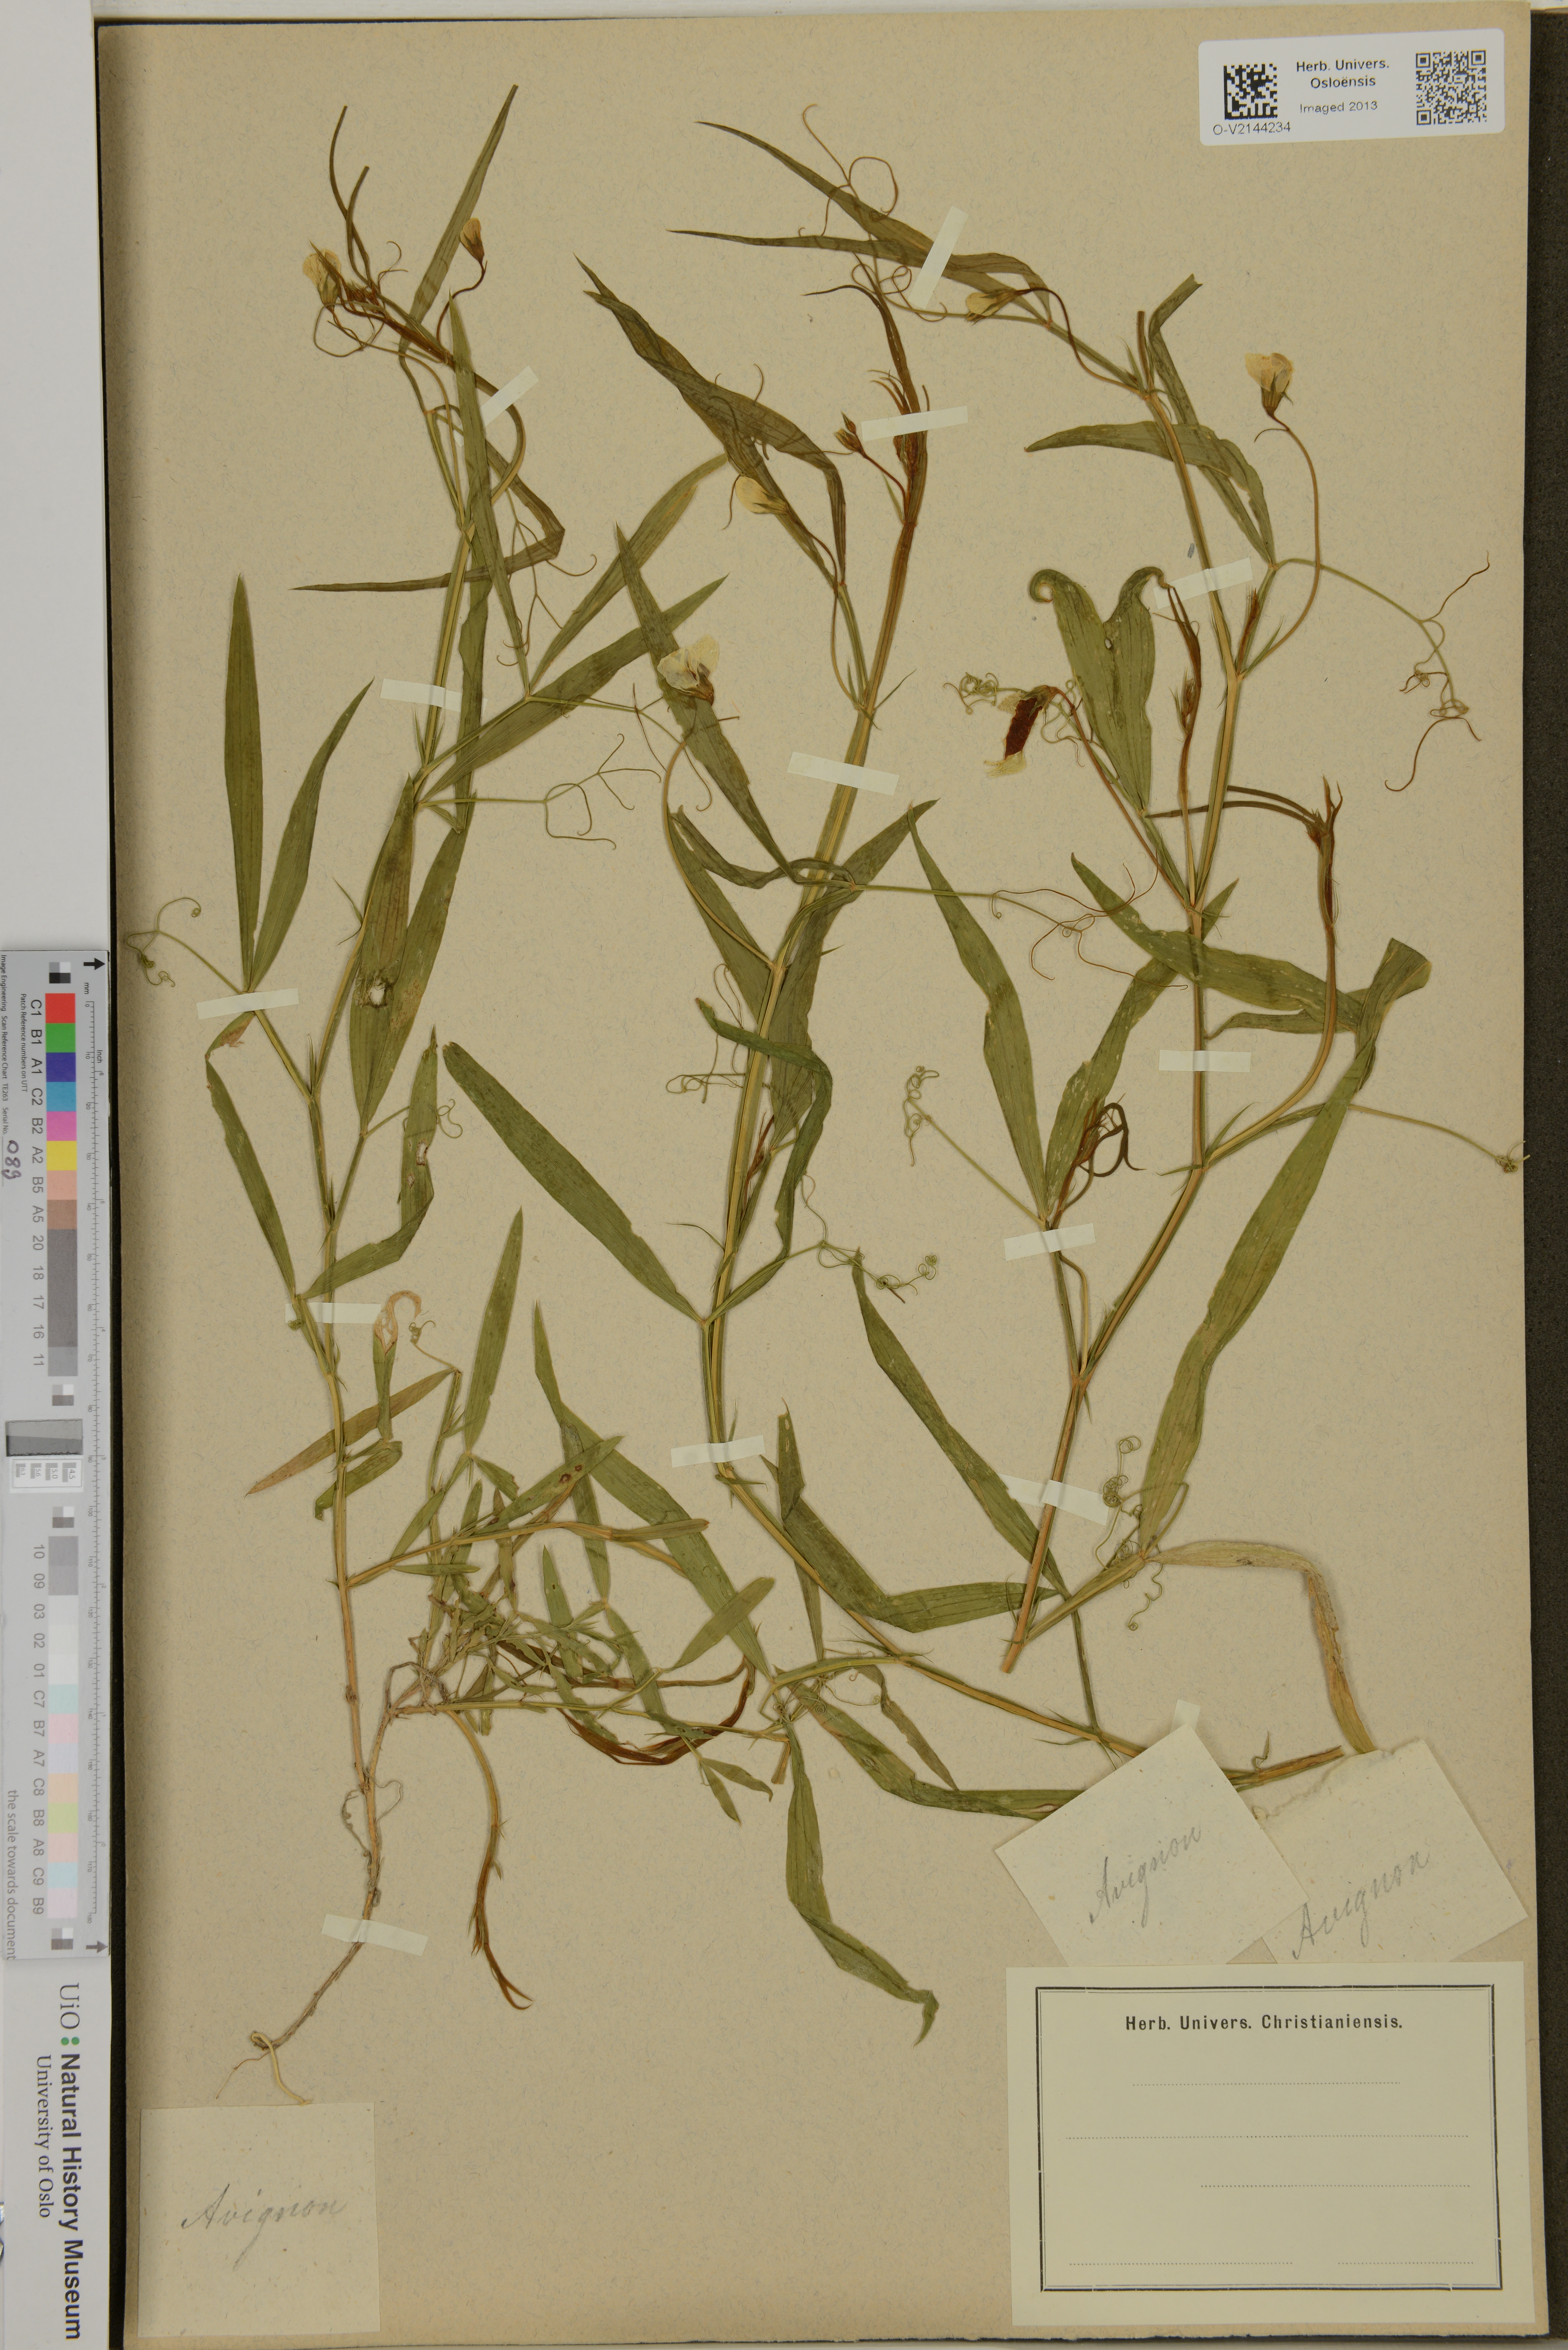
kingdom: Plantae
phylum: Tracheophyta
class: Magnoliopsida
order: Fabales
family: Fabaceae
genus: Lathyrus
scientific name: Lathyrus
